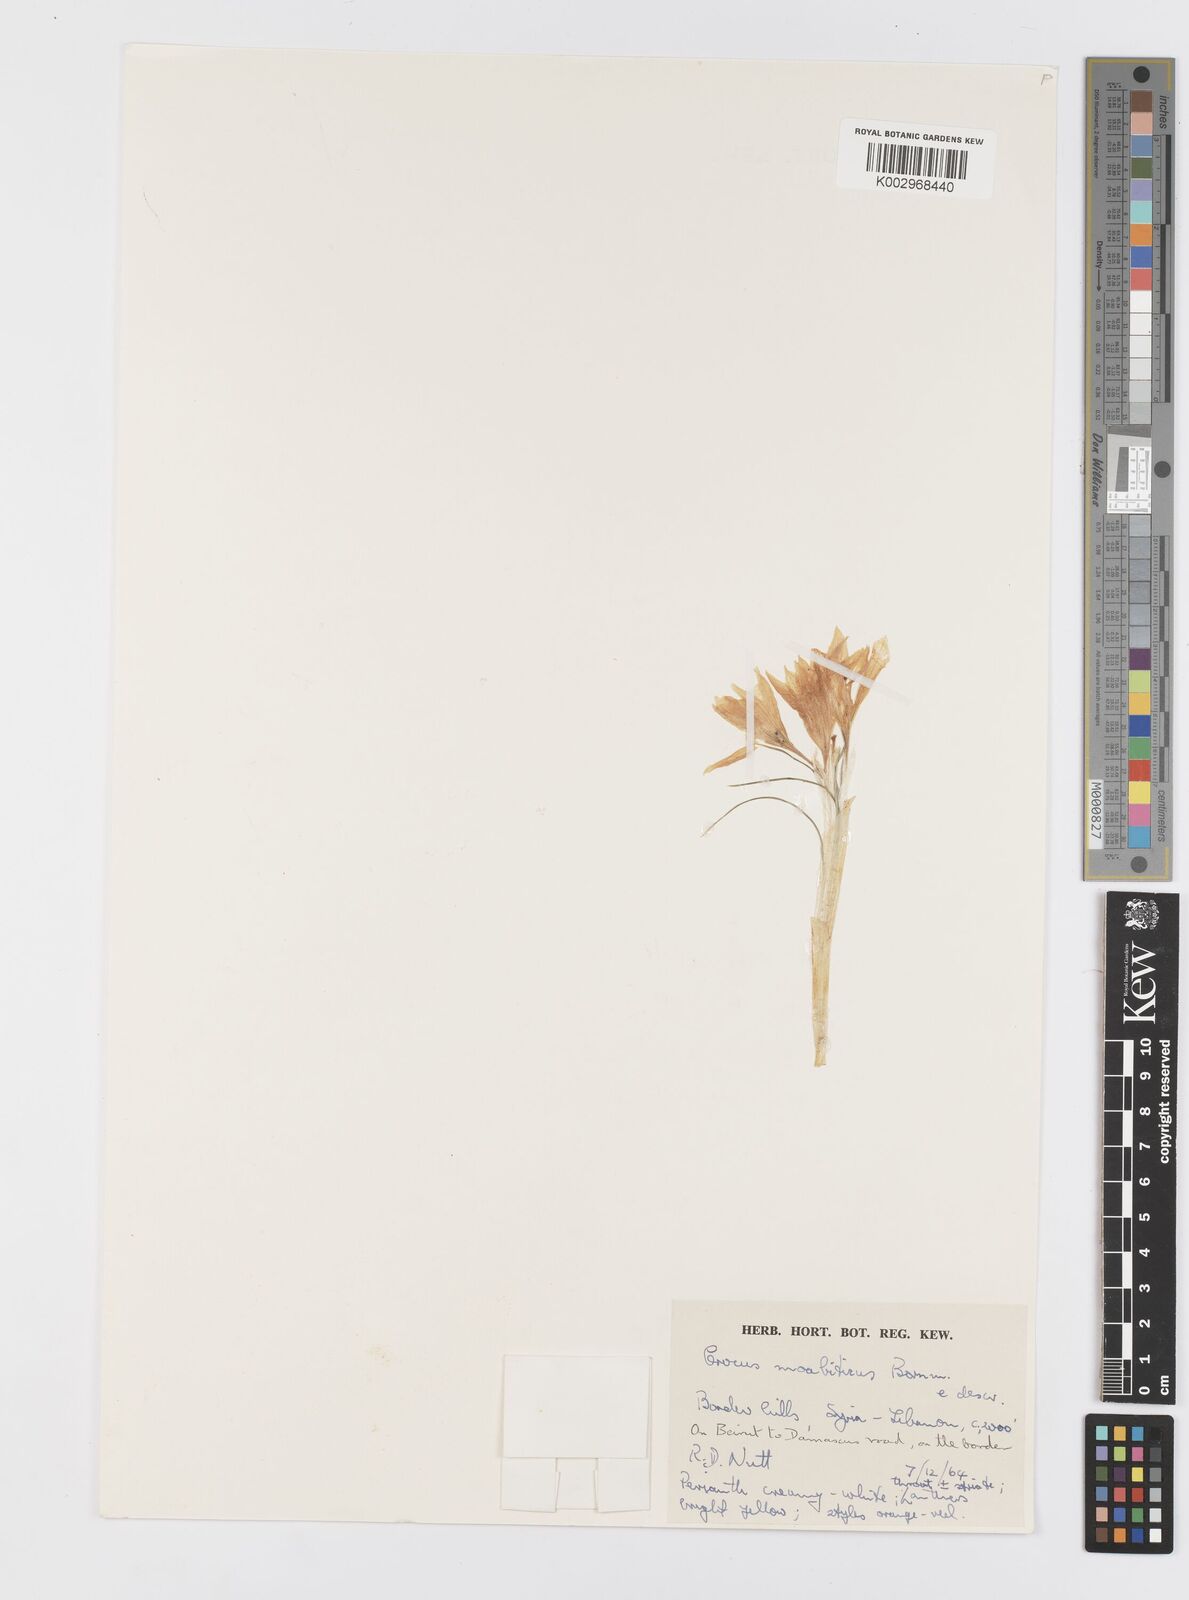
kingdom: Plantae
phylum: Tracheophyta
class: Liliopsida
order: Asparagales
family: Iridaceae
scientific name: Iridaceae
